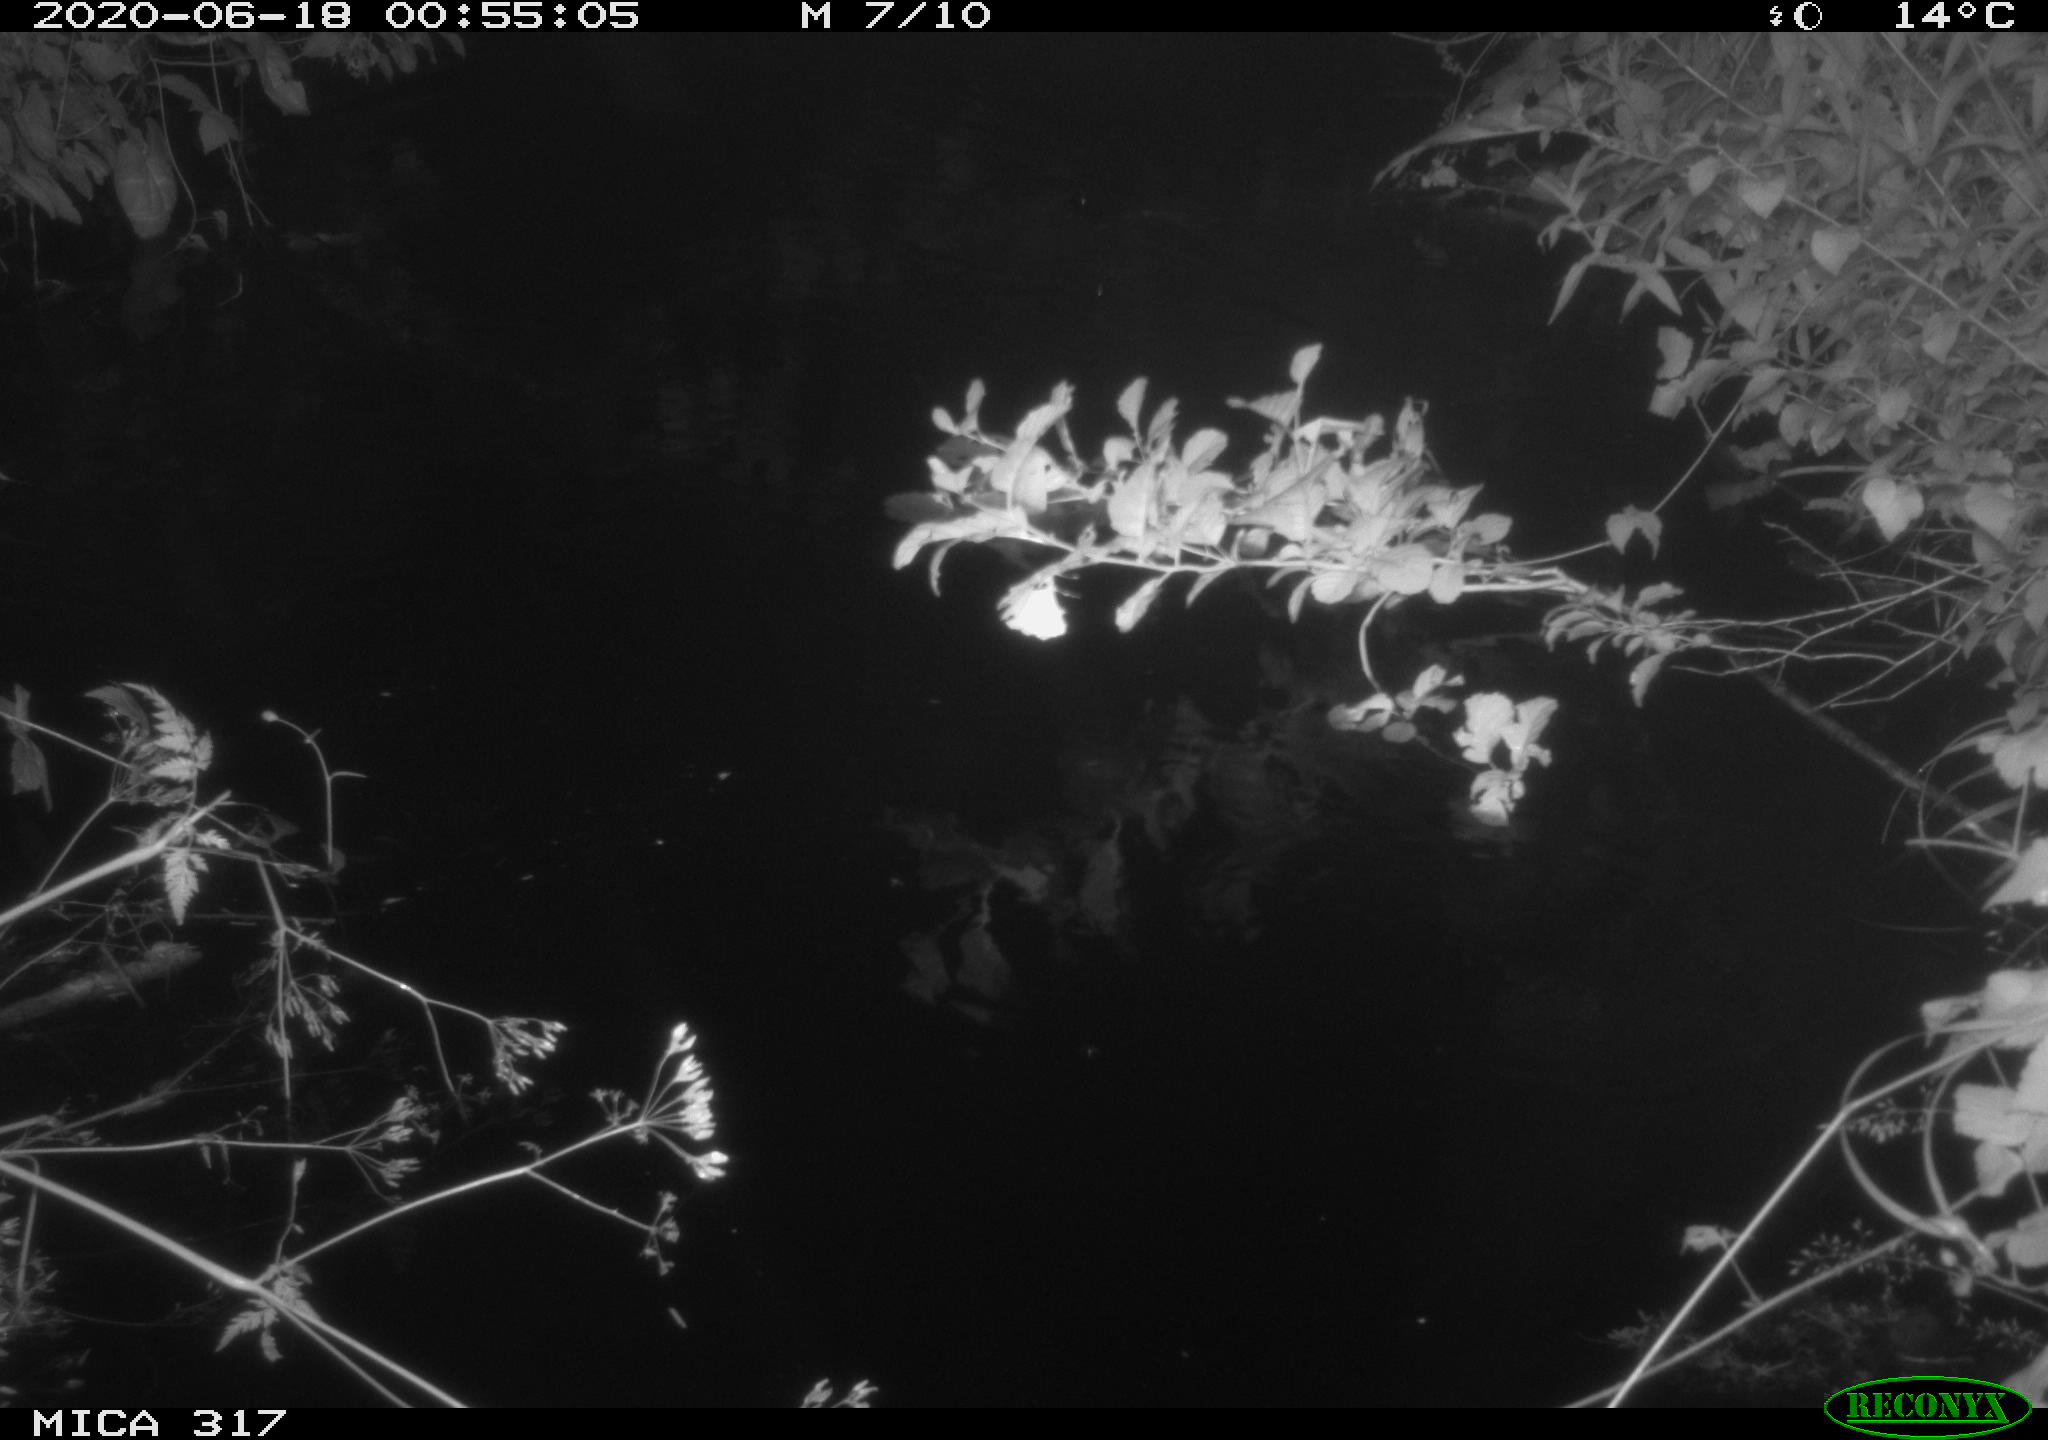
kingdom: Animalia
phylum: Chordata
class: Aves
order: Anseriformes
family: Anatidae
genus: Anas
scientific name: Anas platyrhynchos
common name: Mallard
